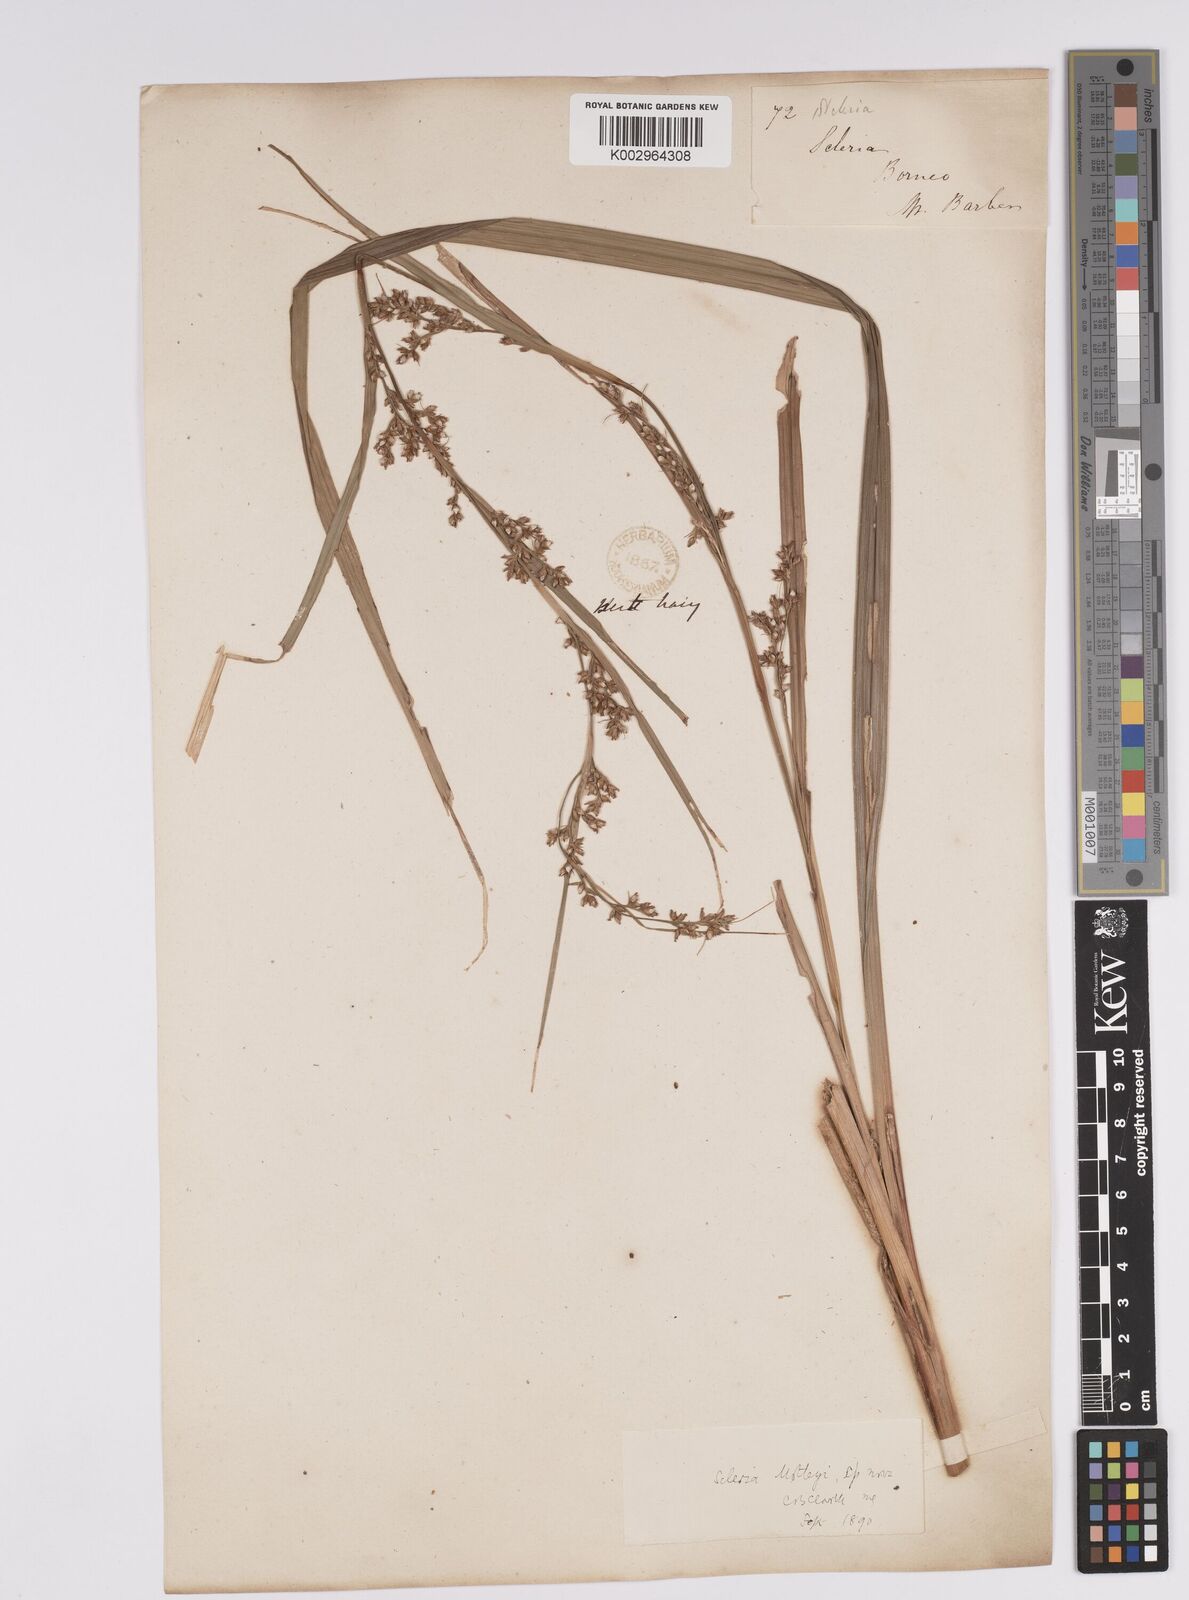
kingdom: Plantae
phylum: Tracheophyta
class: Liliopsida
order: Poales
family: Cyperaceae
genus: Scleria
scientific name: Scleria motleyi
